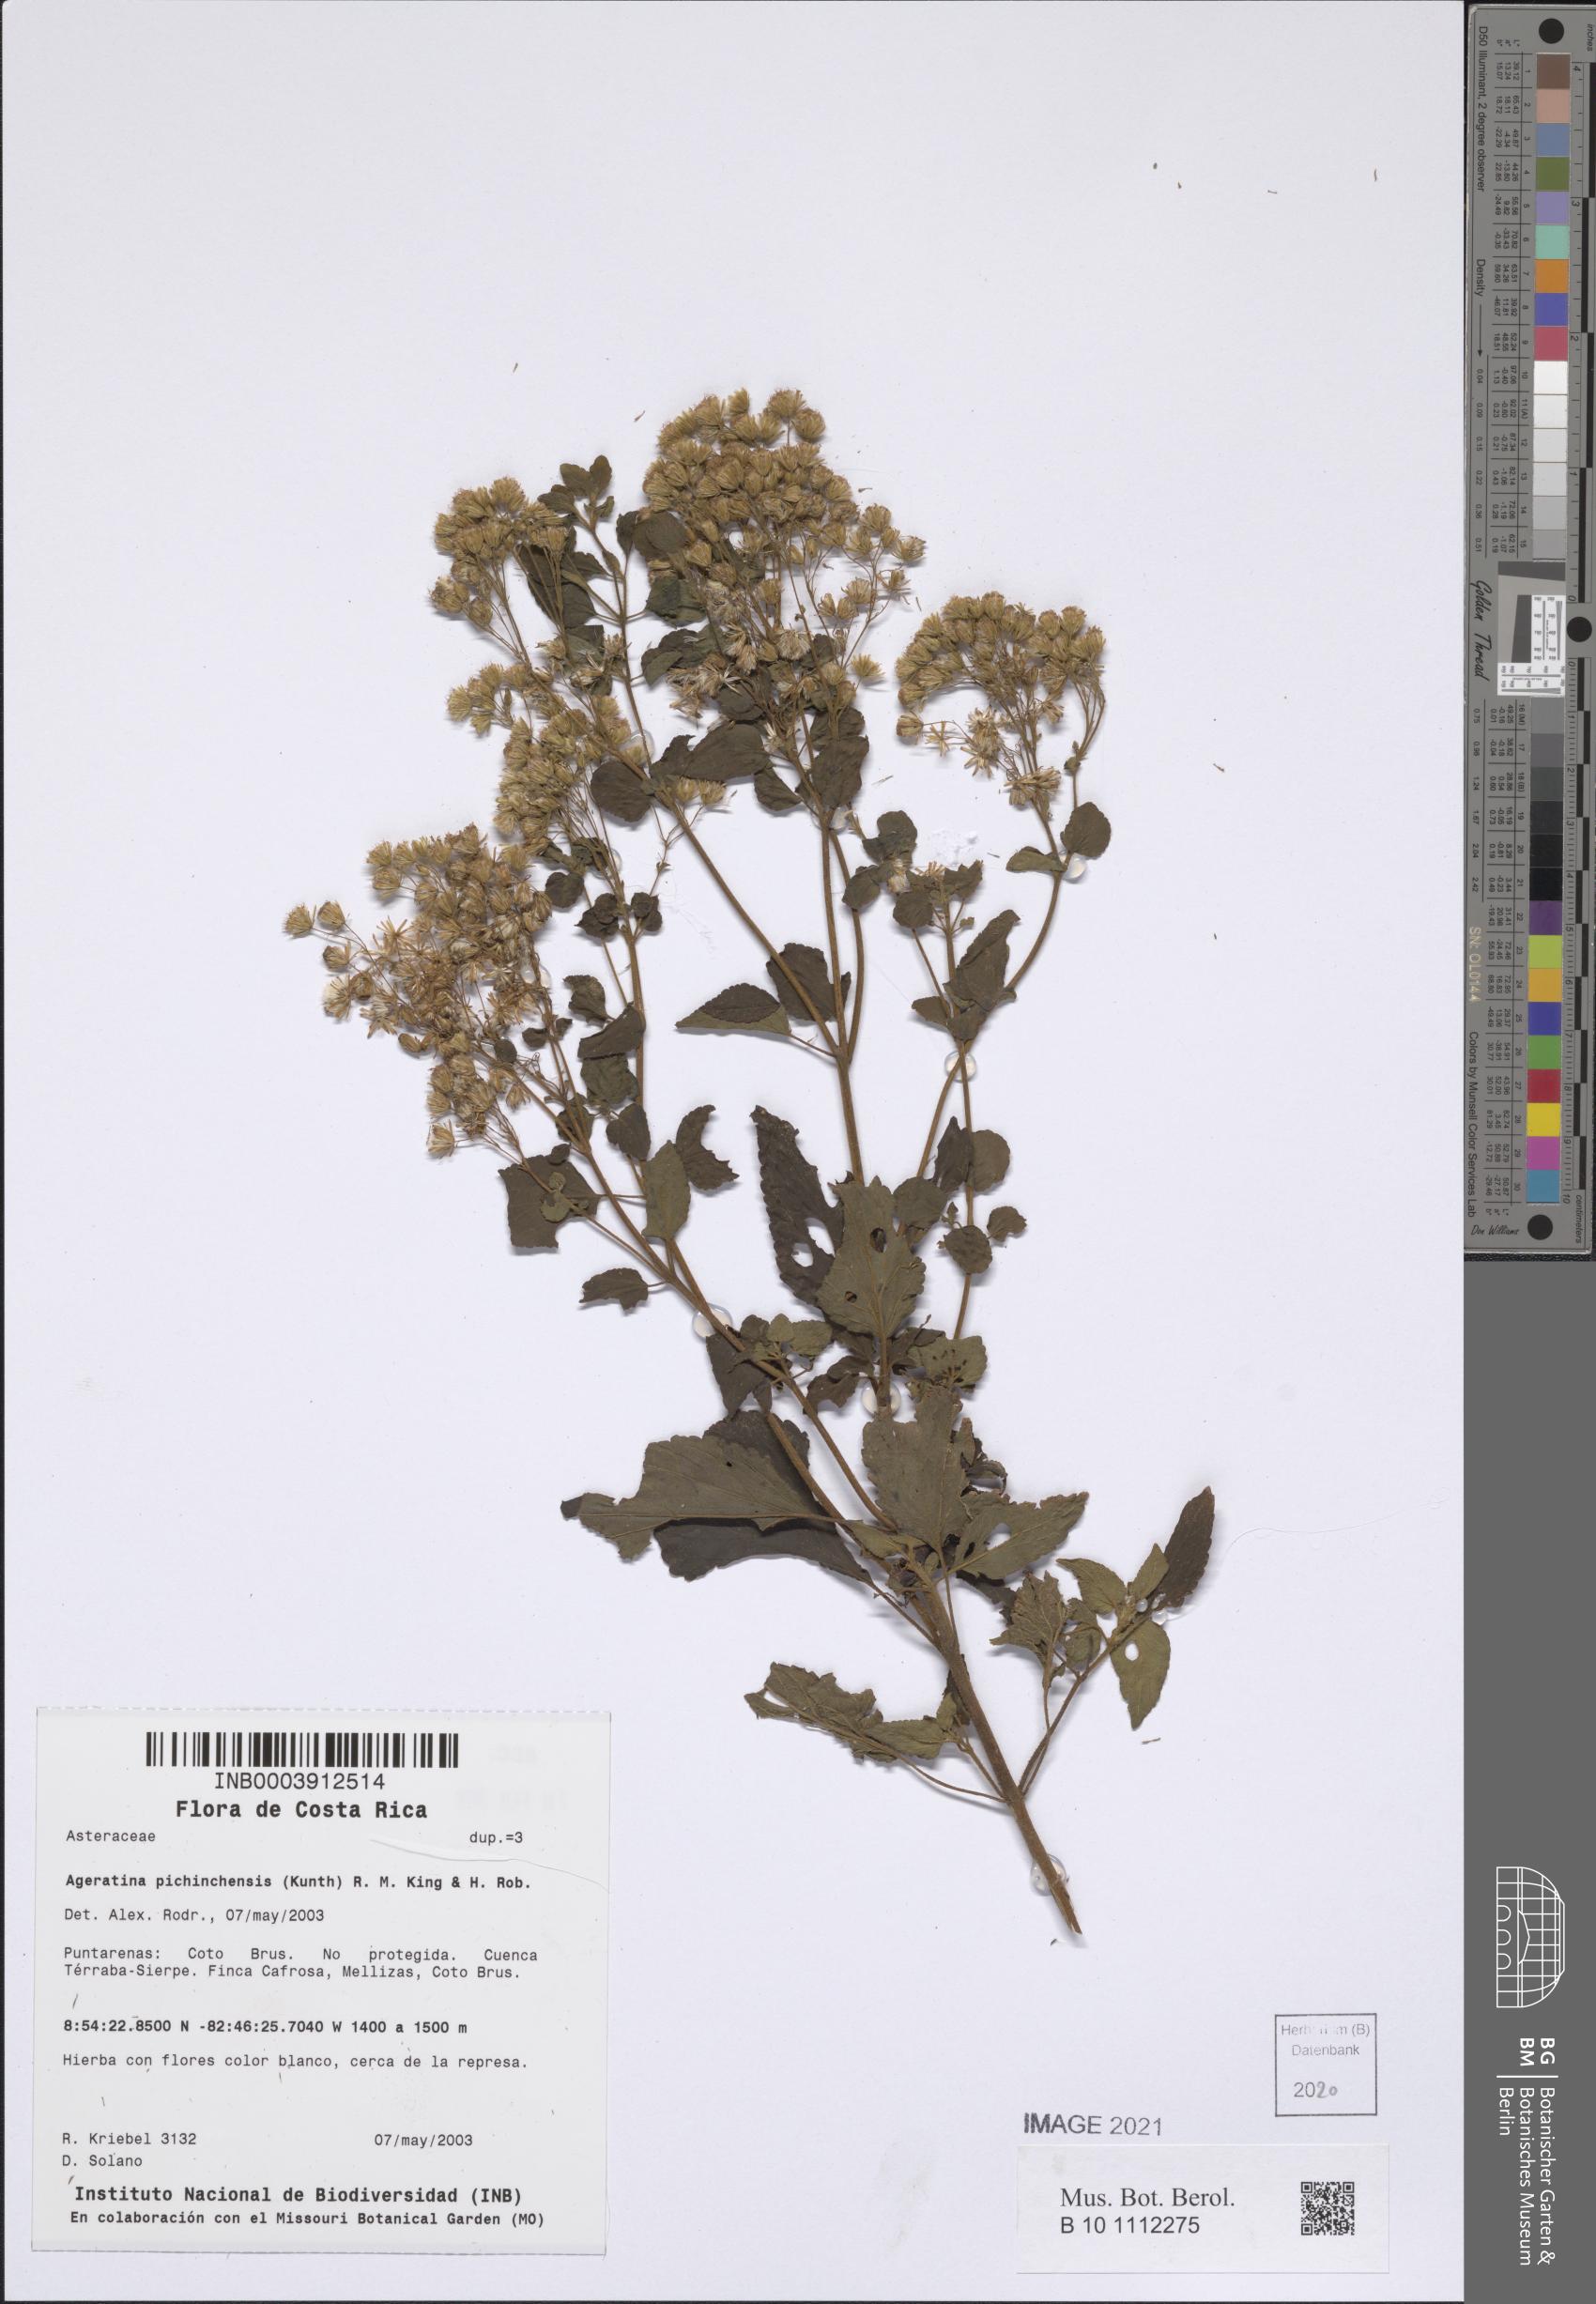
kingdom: Plantae
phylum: Tracheophyta
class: Magnoliopsida
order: Asterales
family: Asteraceae
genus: Ageratina
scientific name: Ageratina pichinchensis
